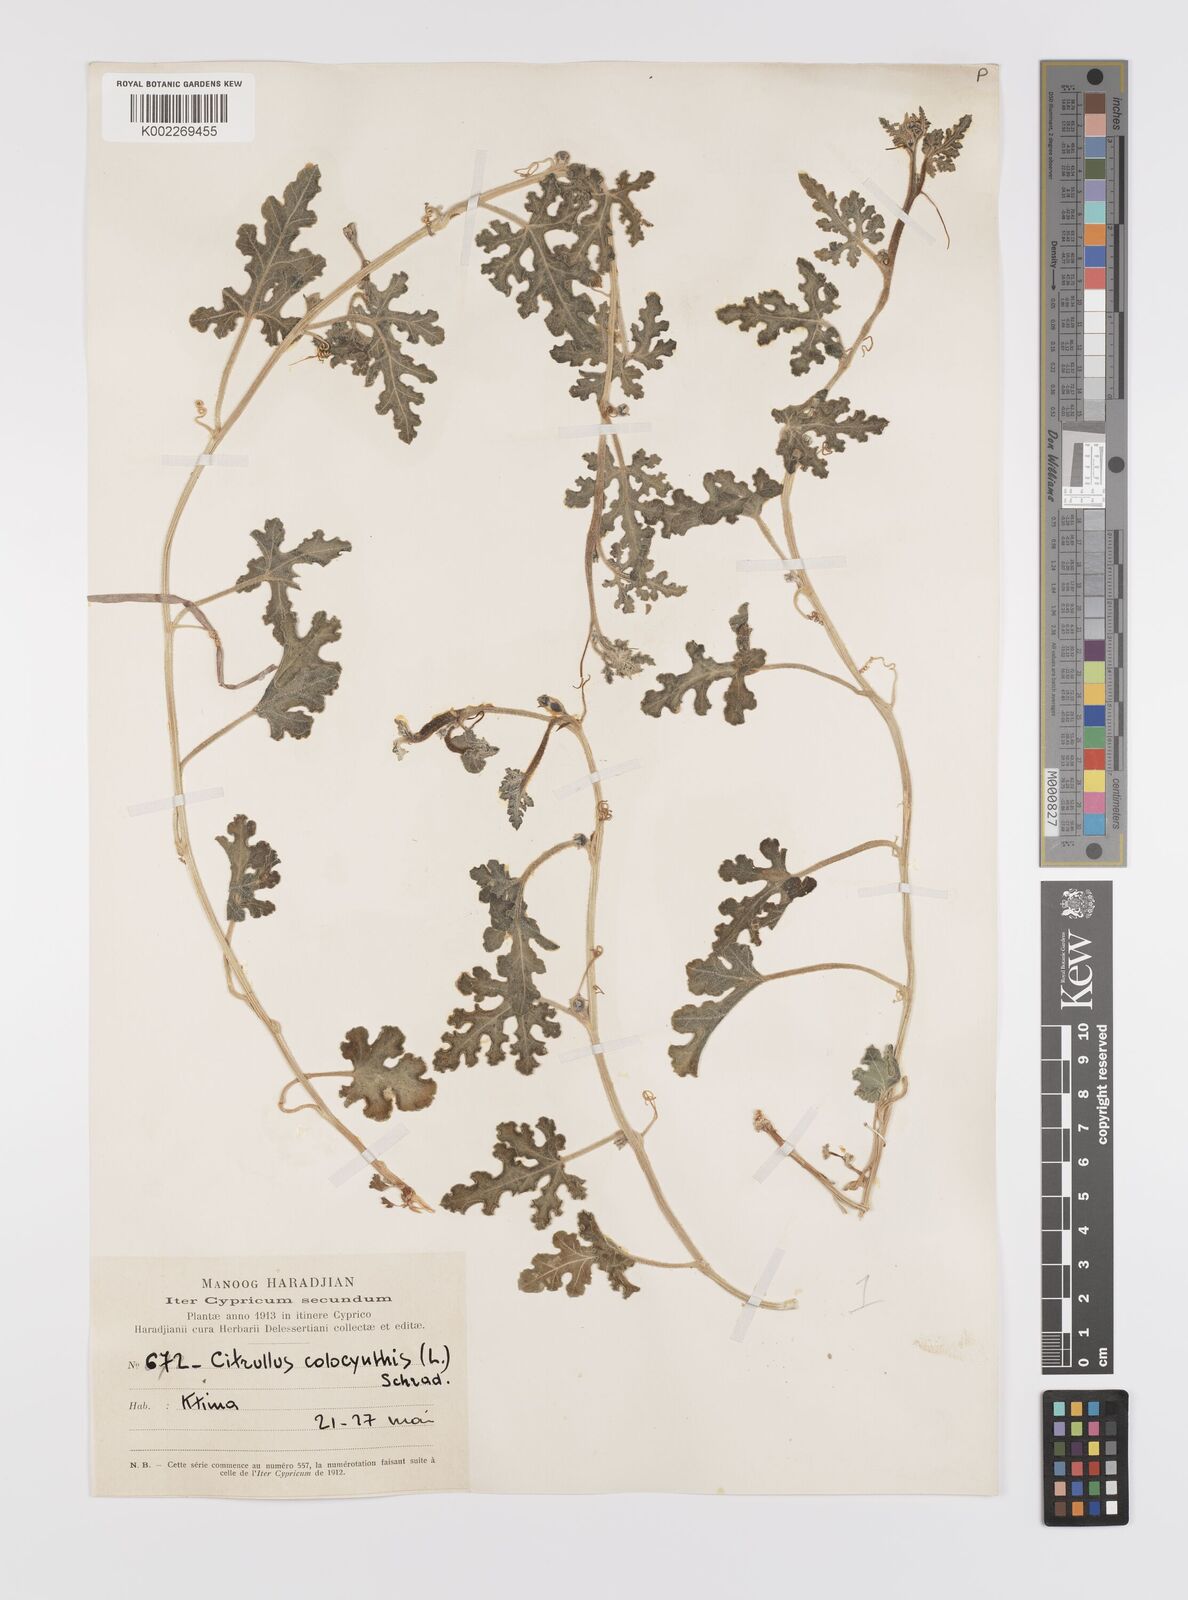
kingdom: Plantae
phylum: Tracheophyta
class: Magnoliopsida
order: Cucurbitales
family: Cucurbitaceae
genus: Citrullus
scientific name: Citrullus colocynthis
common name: Colocynth
